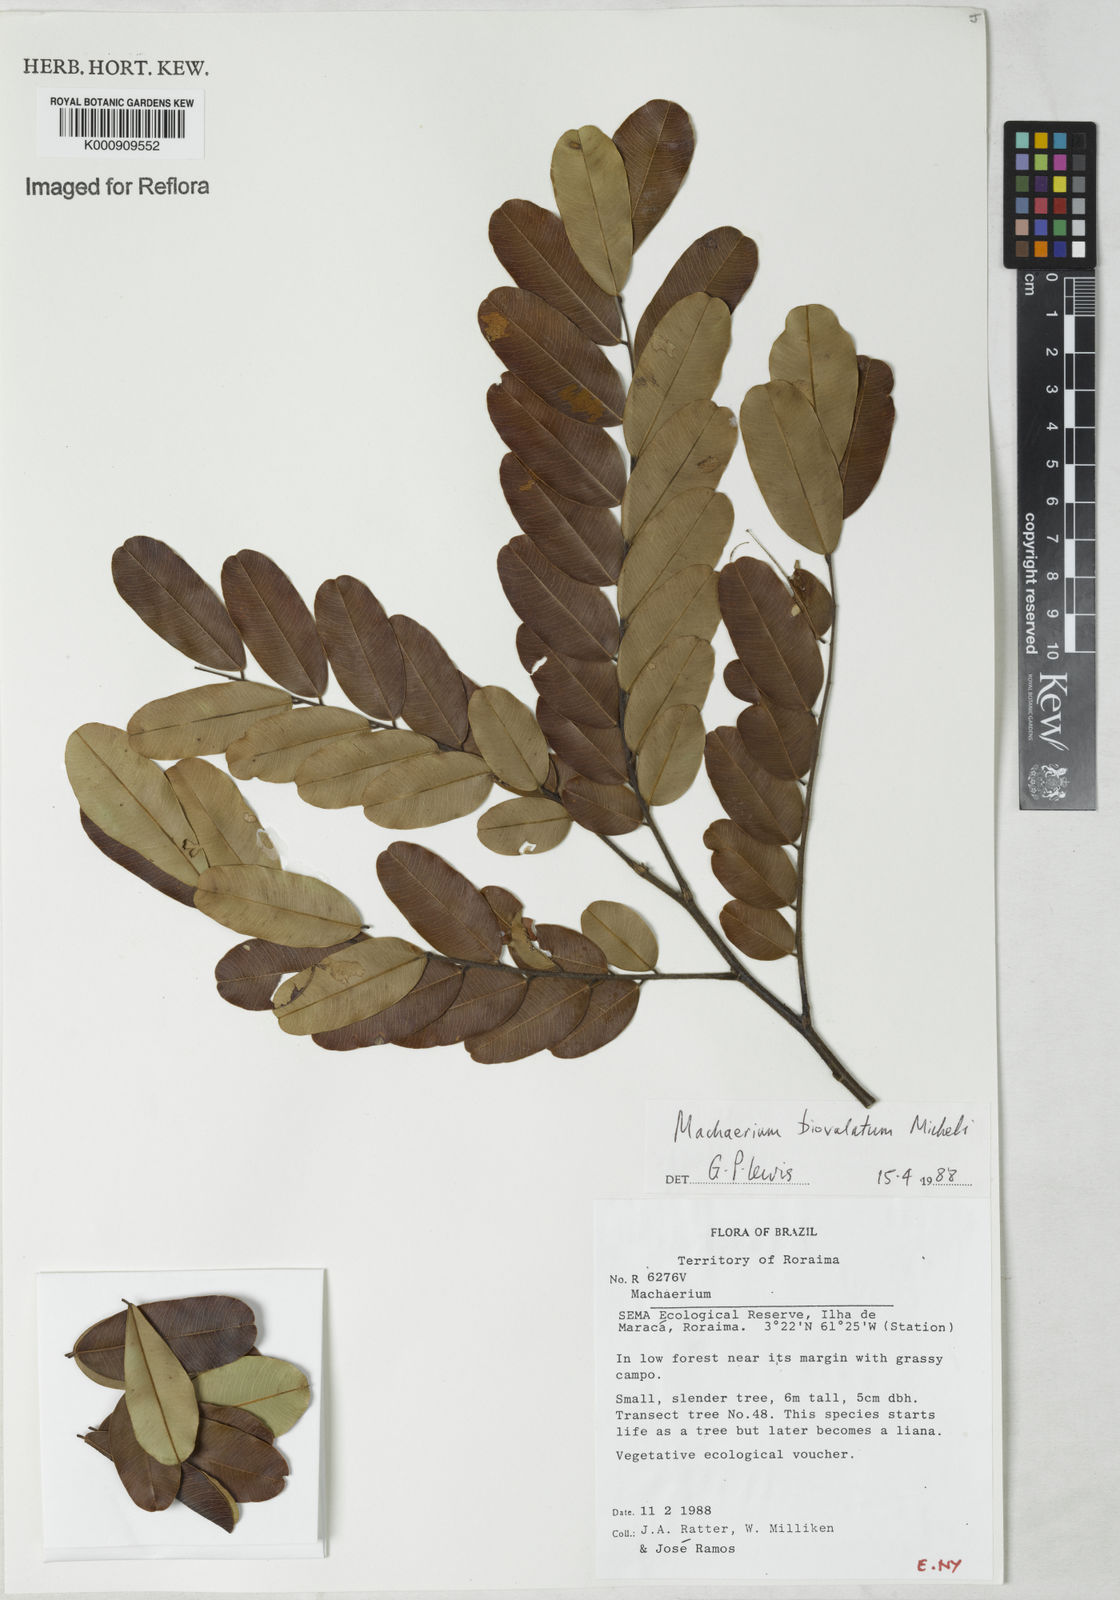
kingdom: Plantae
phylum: Tracheophyta
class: Magnoliopsida
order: Fabales
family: Fabaceae
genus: Machaerium
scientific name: Machaerium biovulatum
